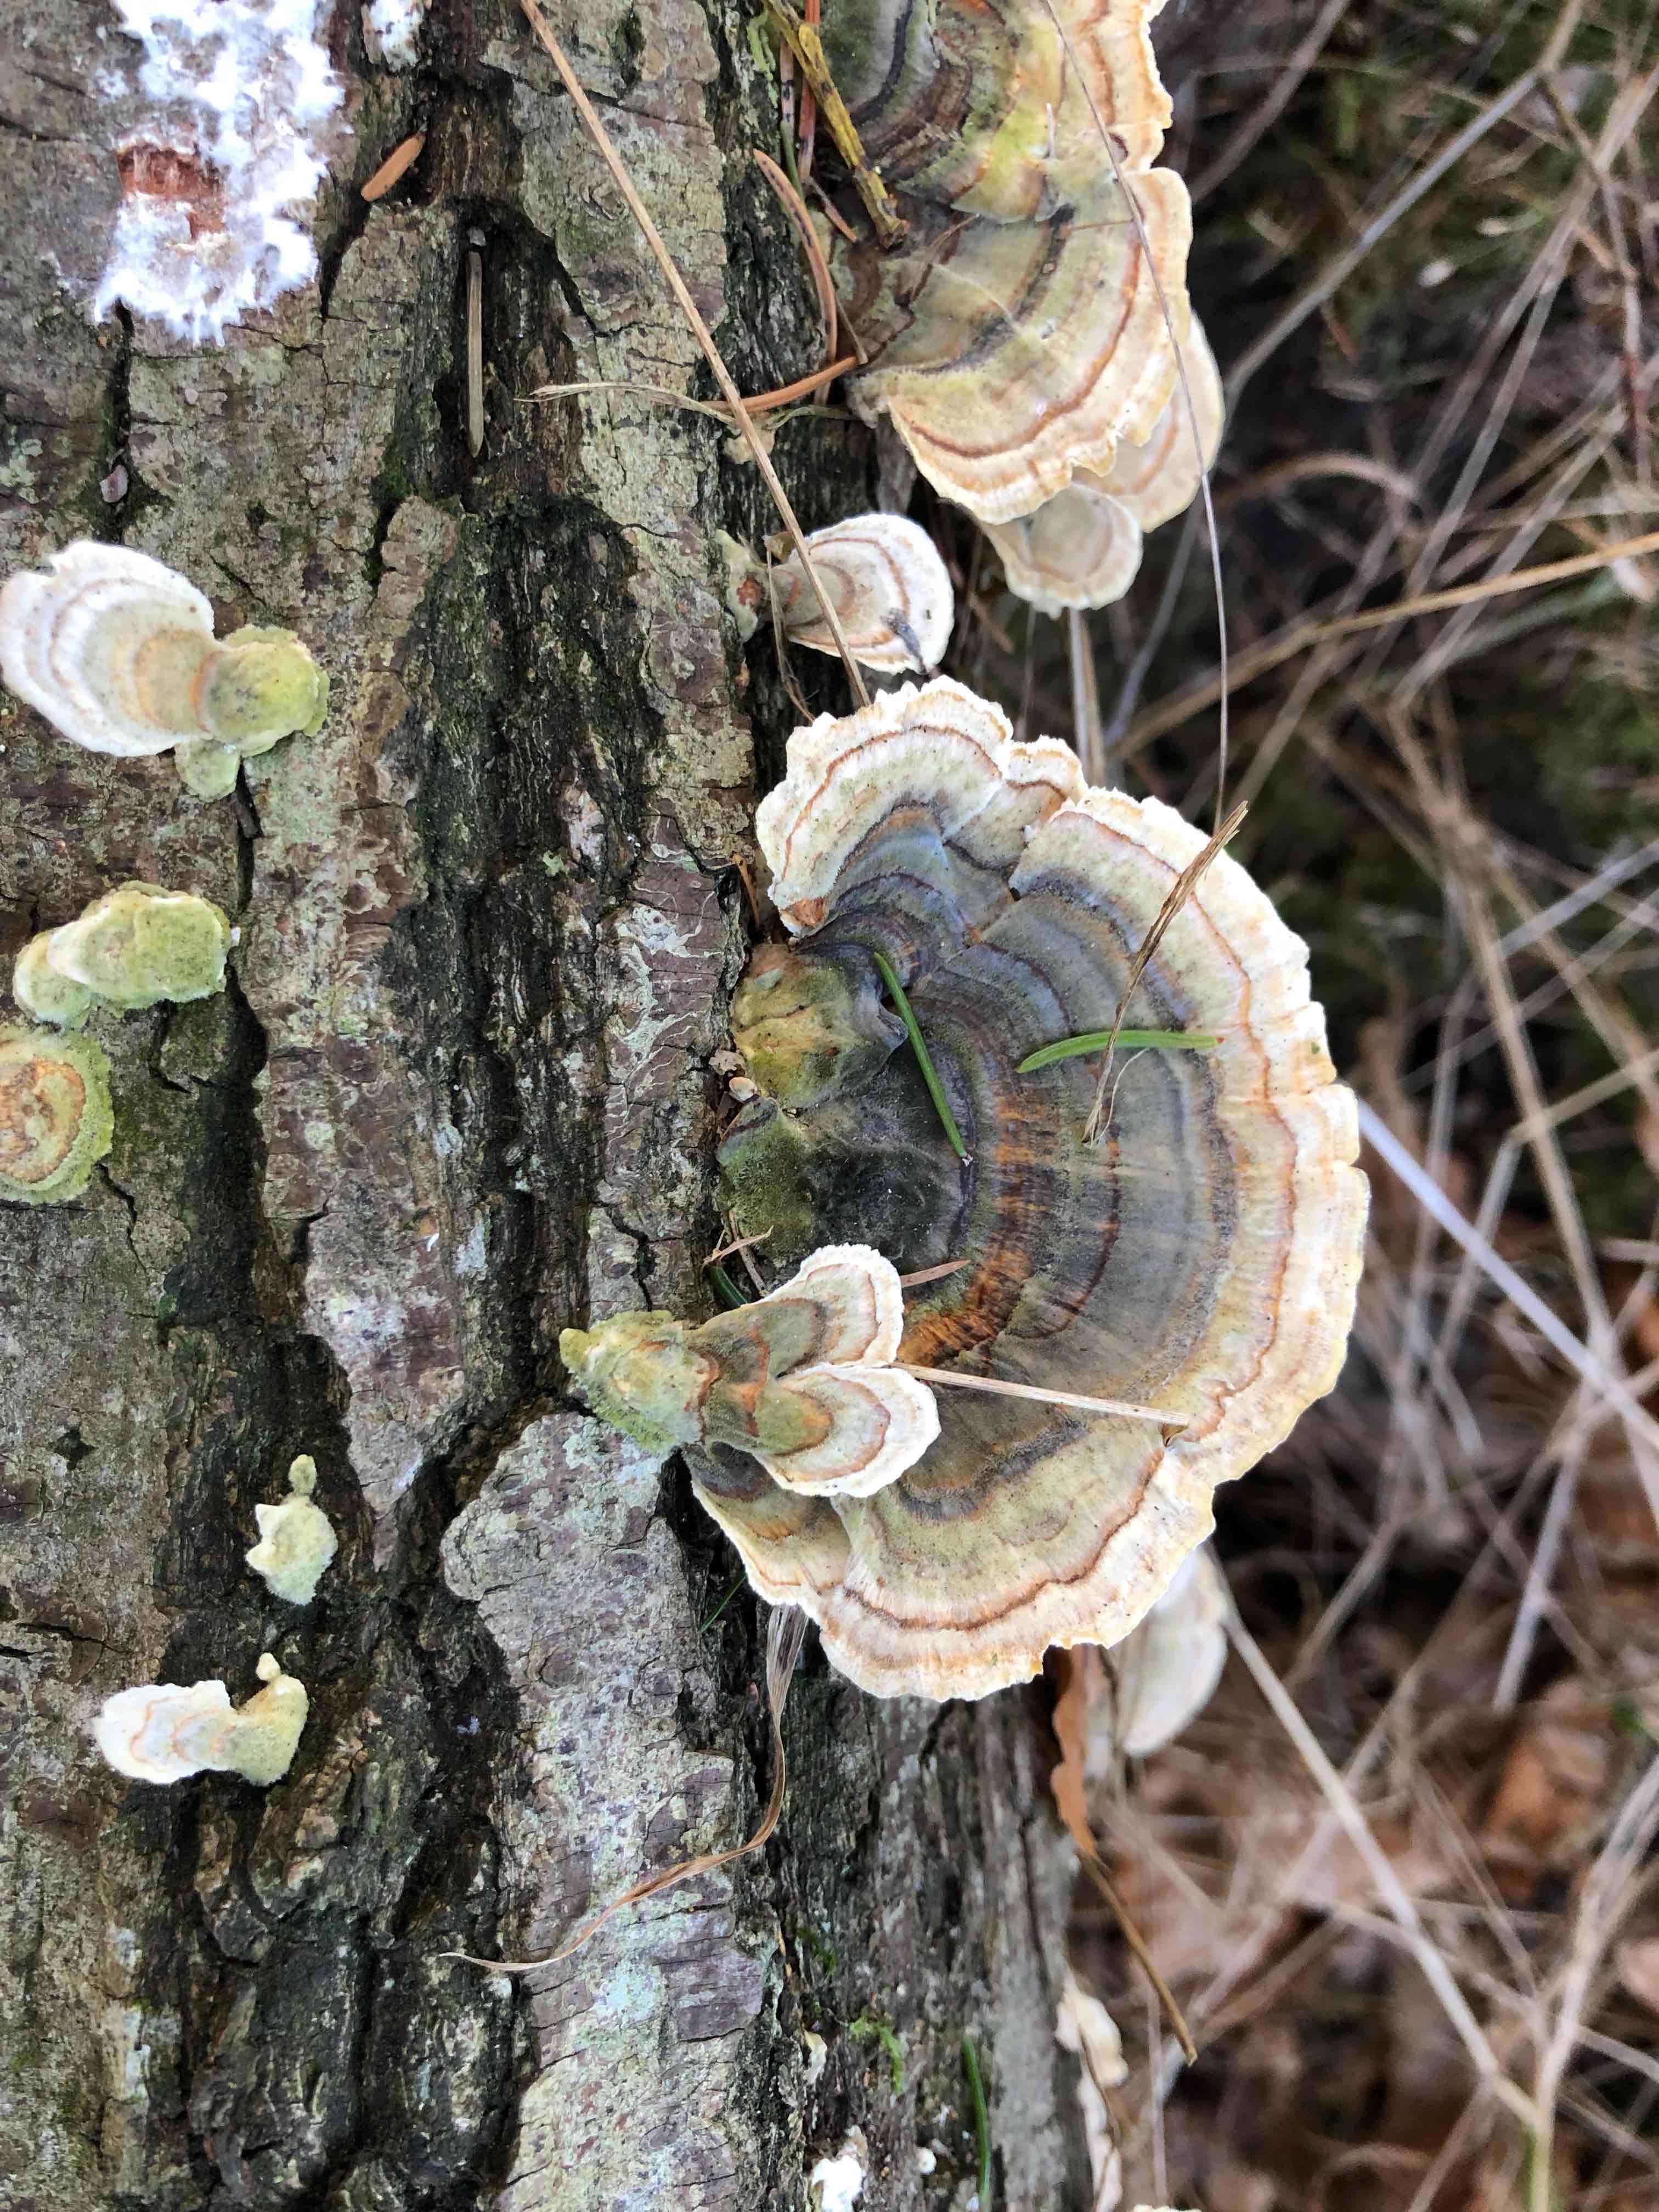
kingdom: Fungi
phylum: Basidiomycota
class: Agaricomycetes
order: Polyporales
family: Polyporaceae
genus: Trametes
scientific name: Trametes versicolor
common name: broget læderporesvamp
